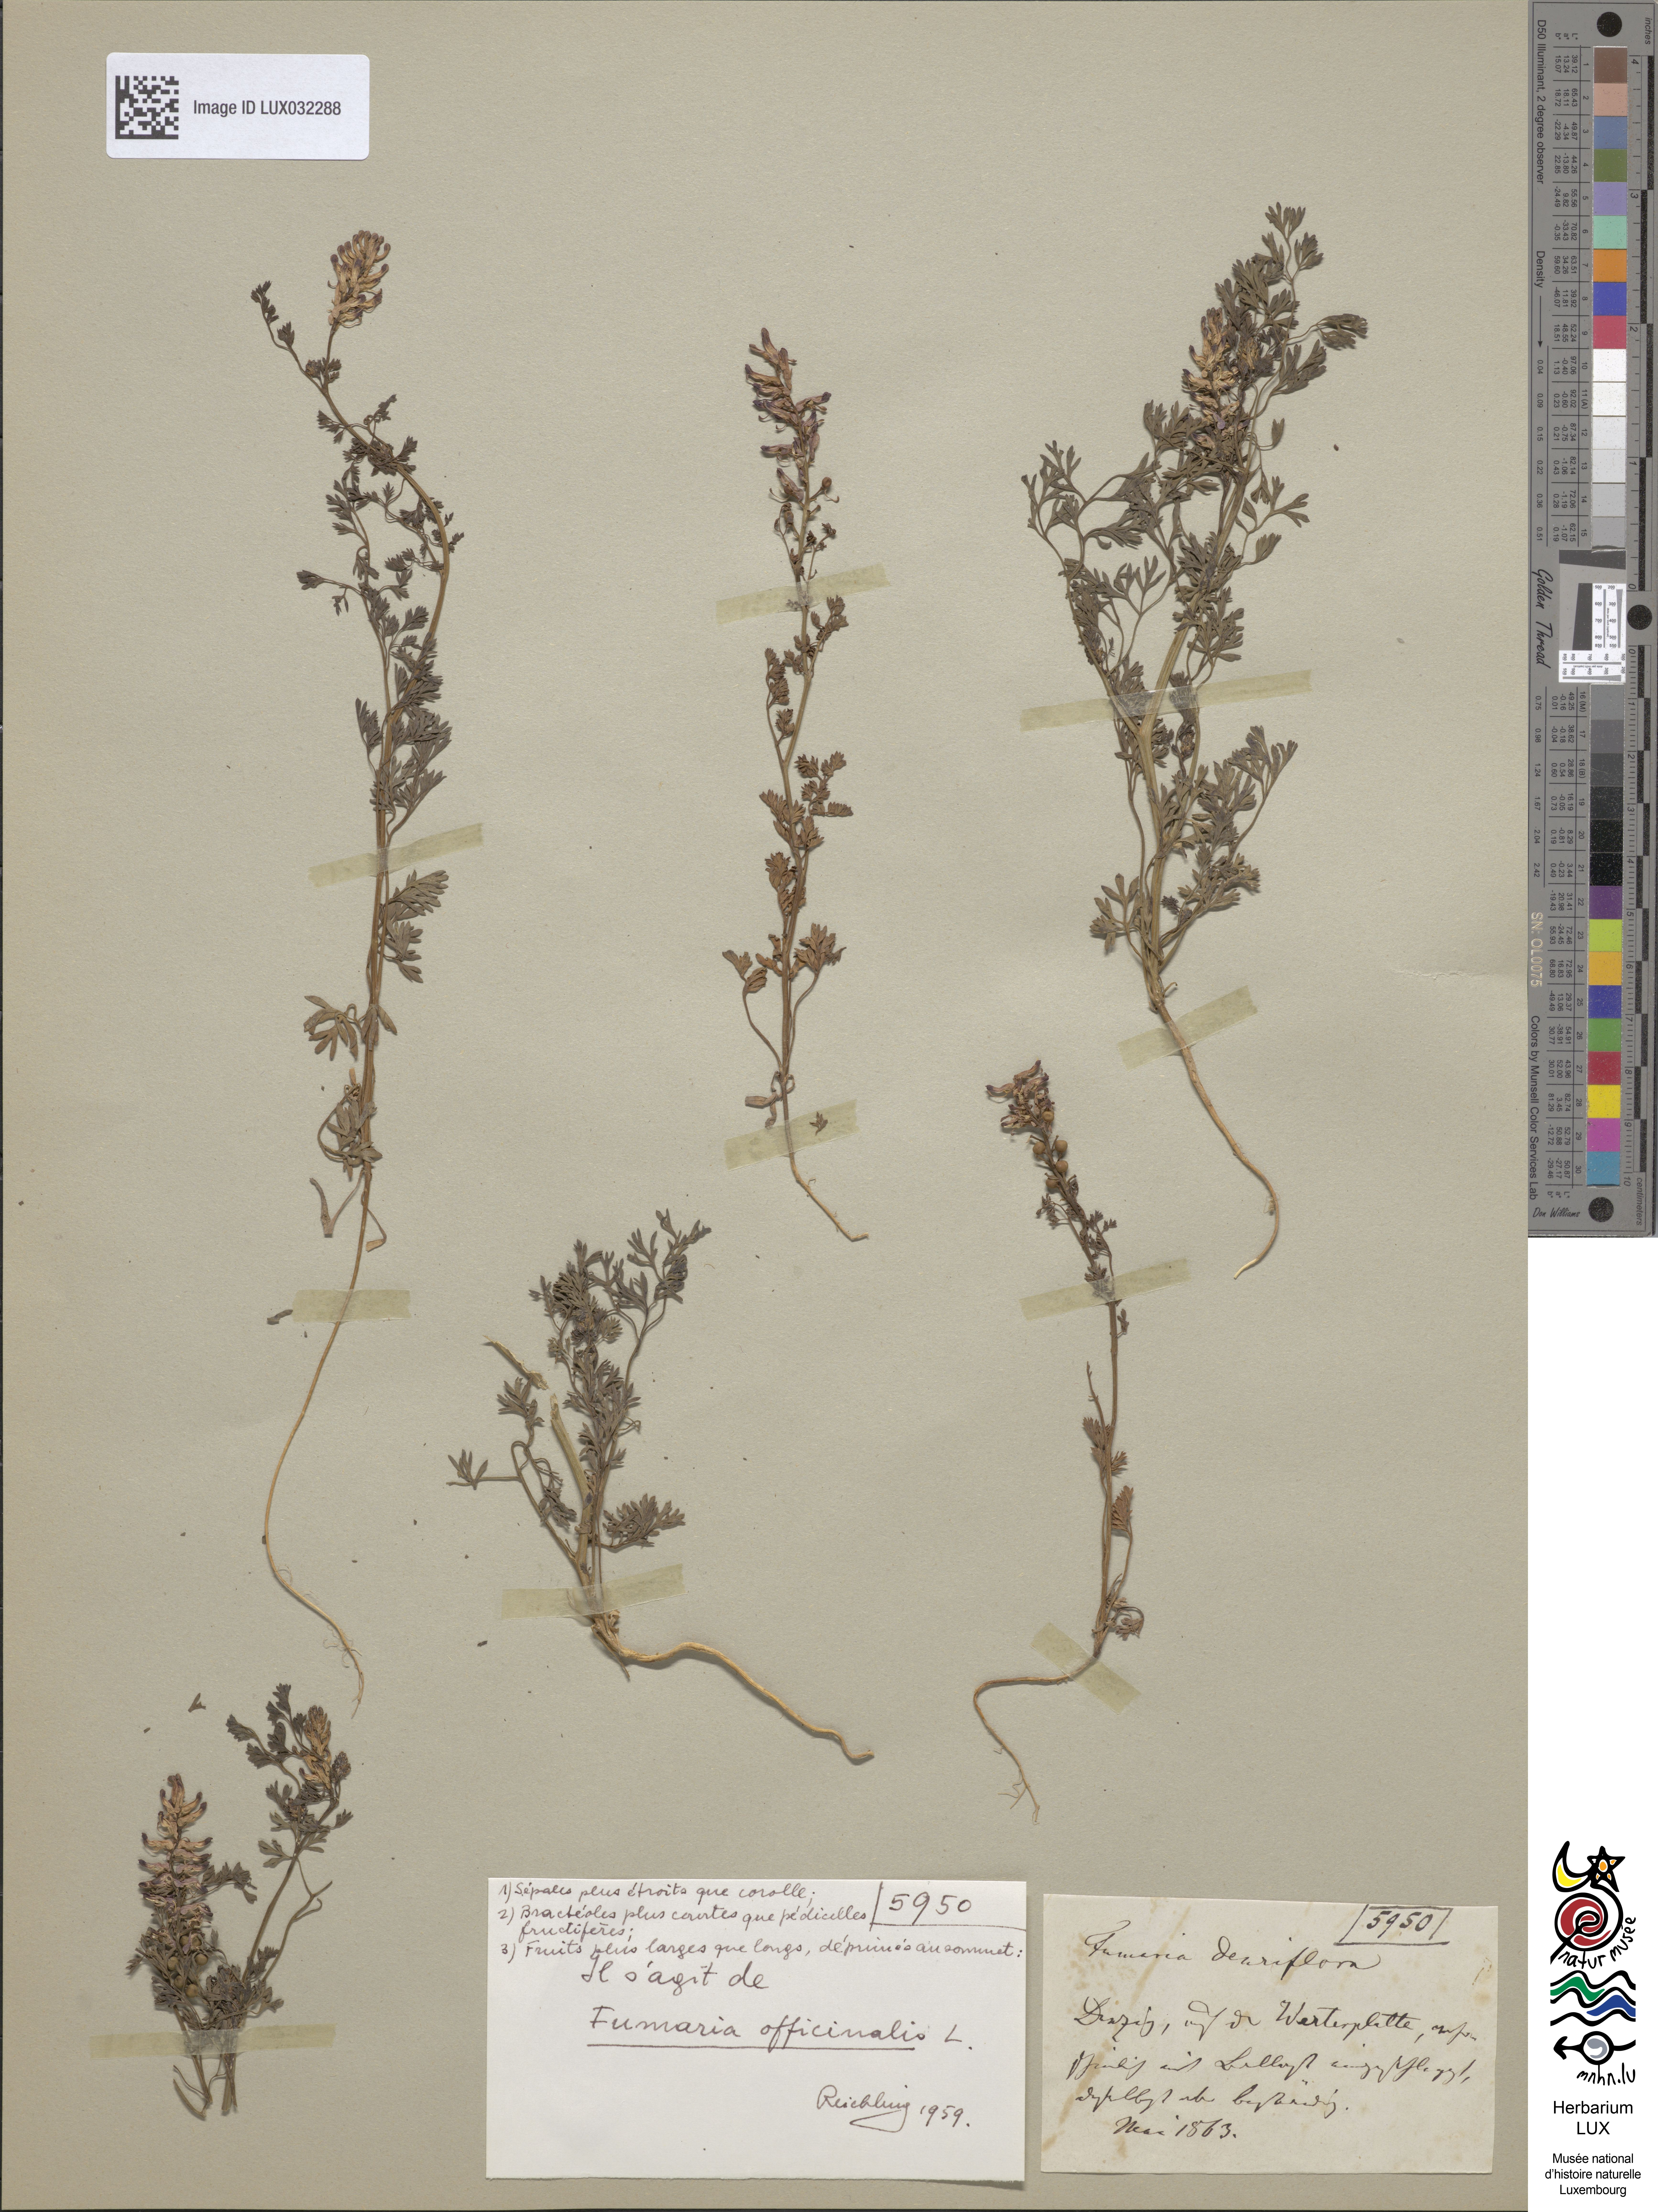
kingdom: Plantae
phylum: Tracheophyta
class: Magnoliopsida
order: Ranunculales
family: Papaveraceae
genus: Fumaria
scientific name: Fumaria officinalis
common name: Common fumitory
